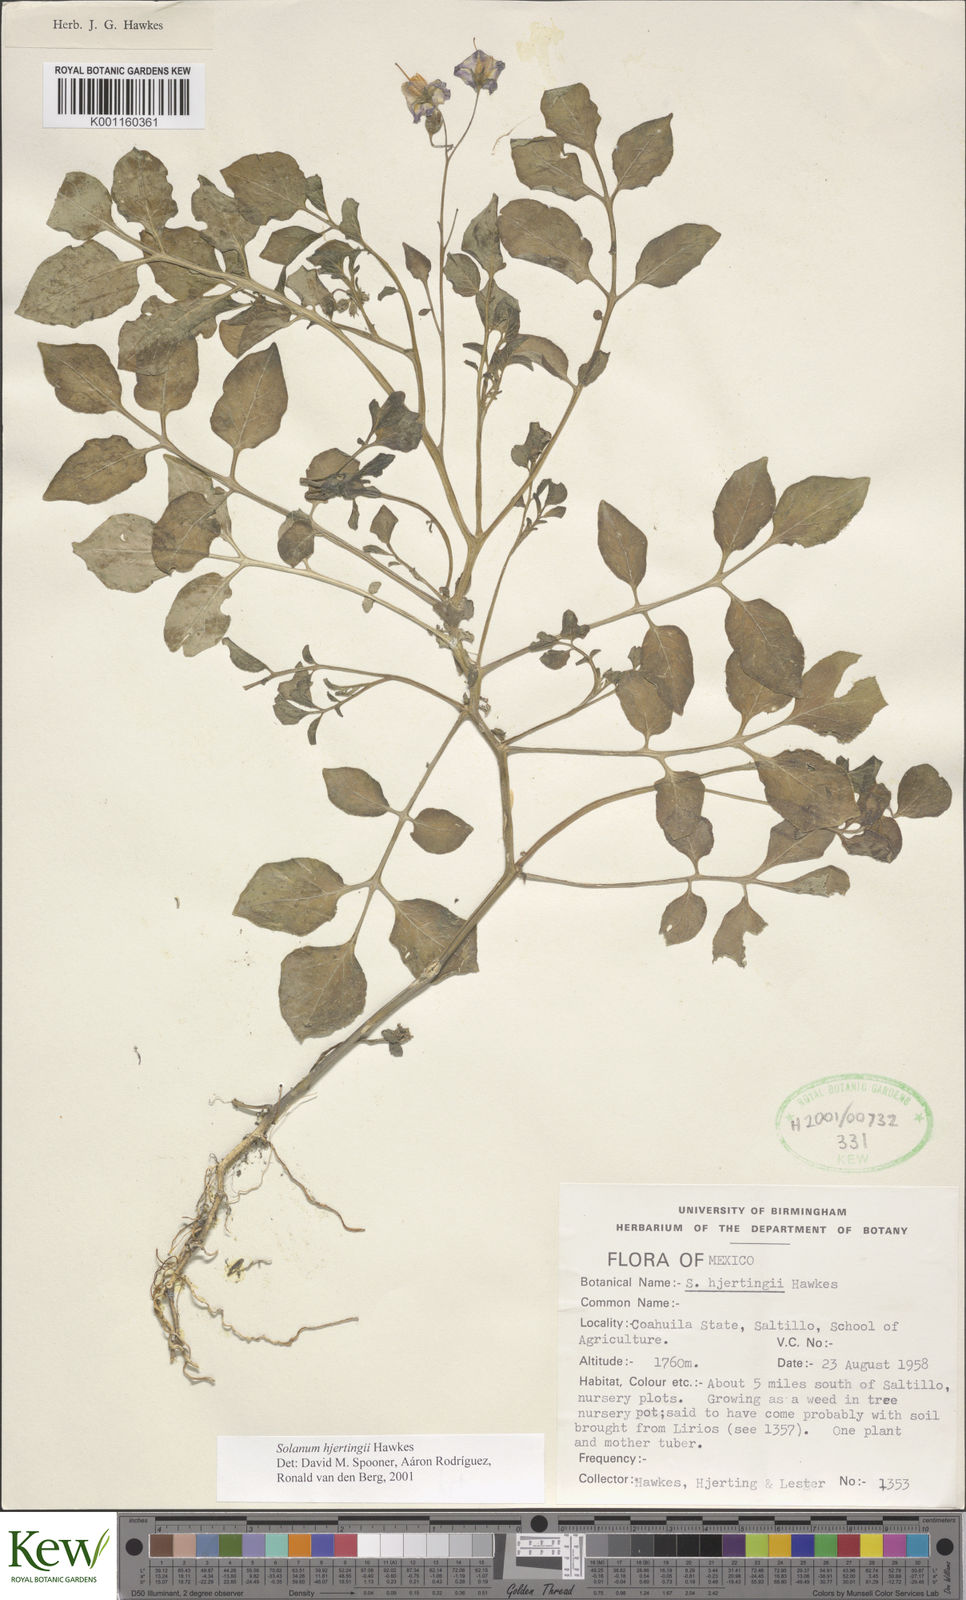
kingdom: Plantae
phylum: Tracheophyta
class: Magnoliopsida
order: Solanales
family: Solanaceae
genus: Solanum
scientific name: Solanum hjertingii
